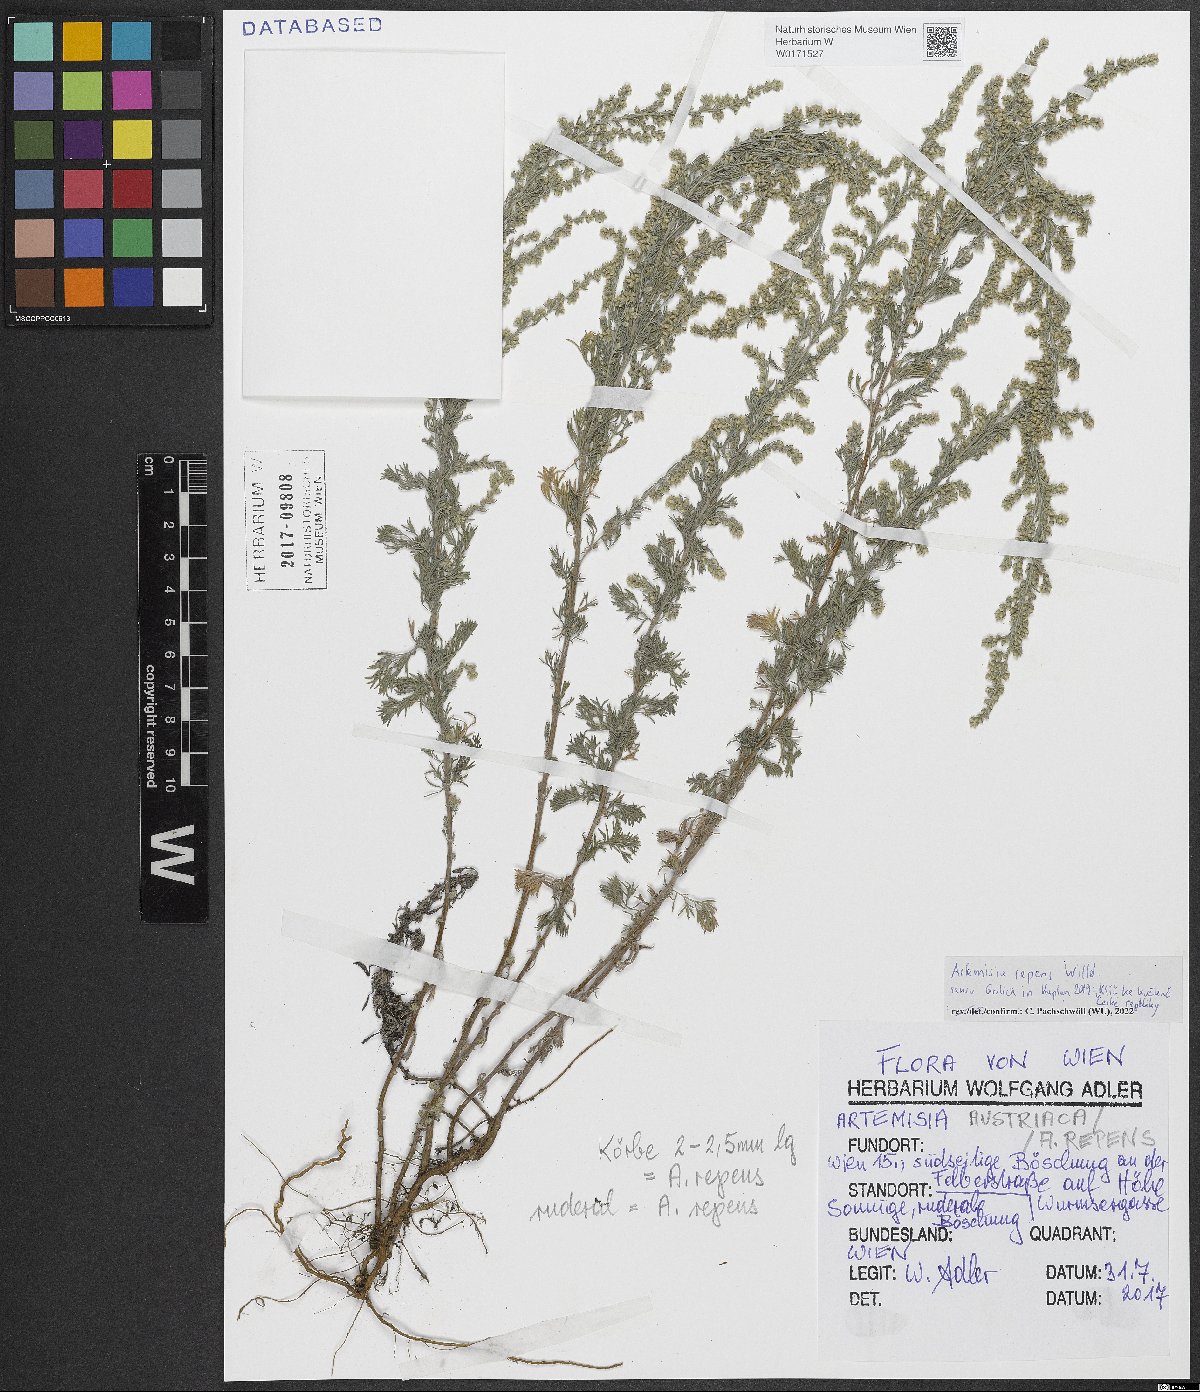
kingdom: Plantae
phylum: Tracheophyta
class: Magnoliopsida
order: Asterales
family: Asteraceae
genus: Artemisia
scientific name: Artemisia repens
